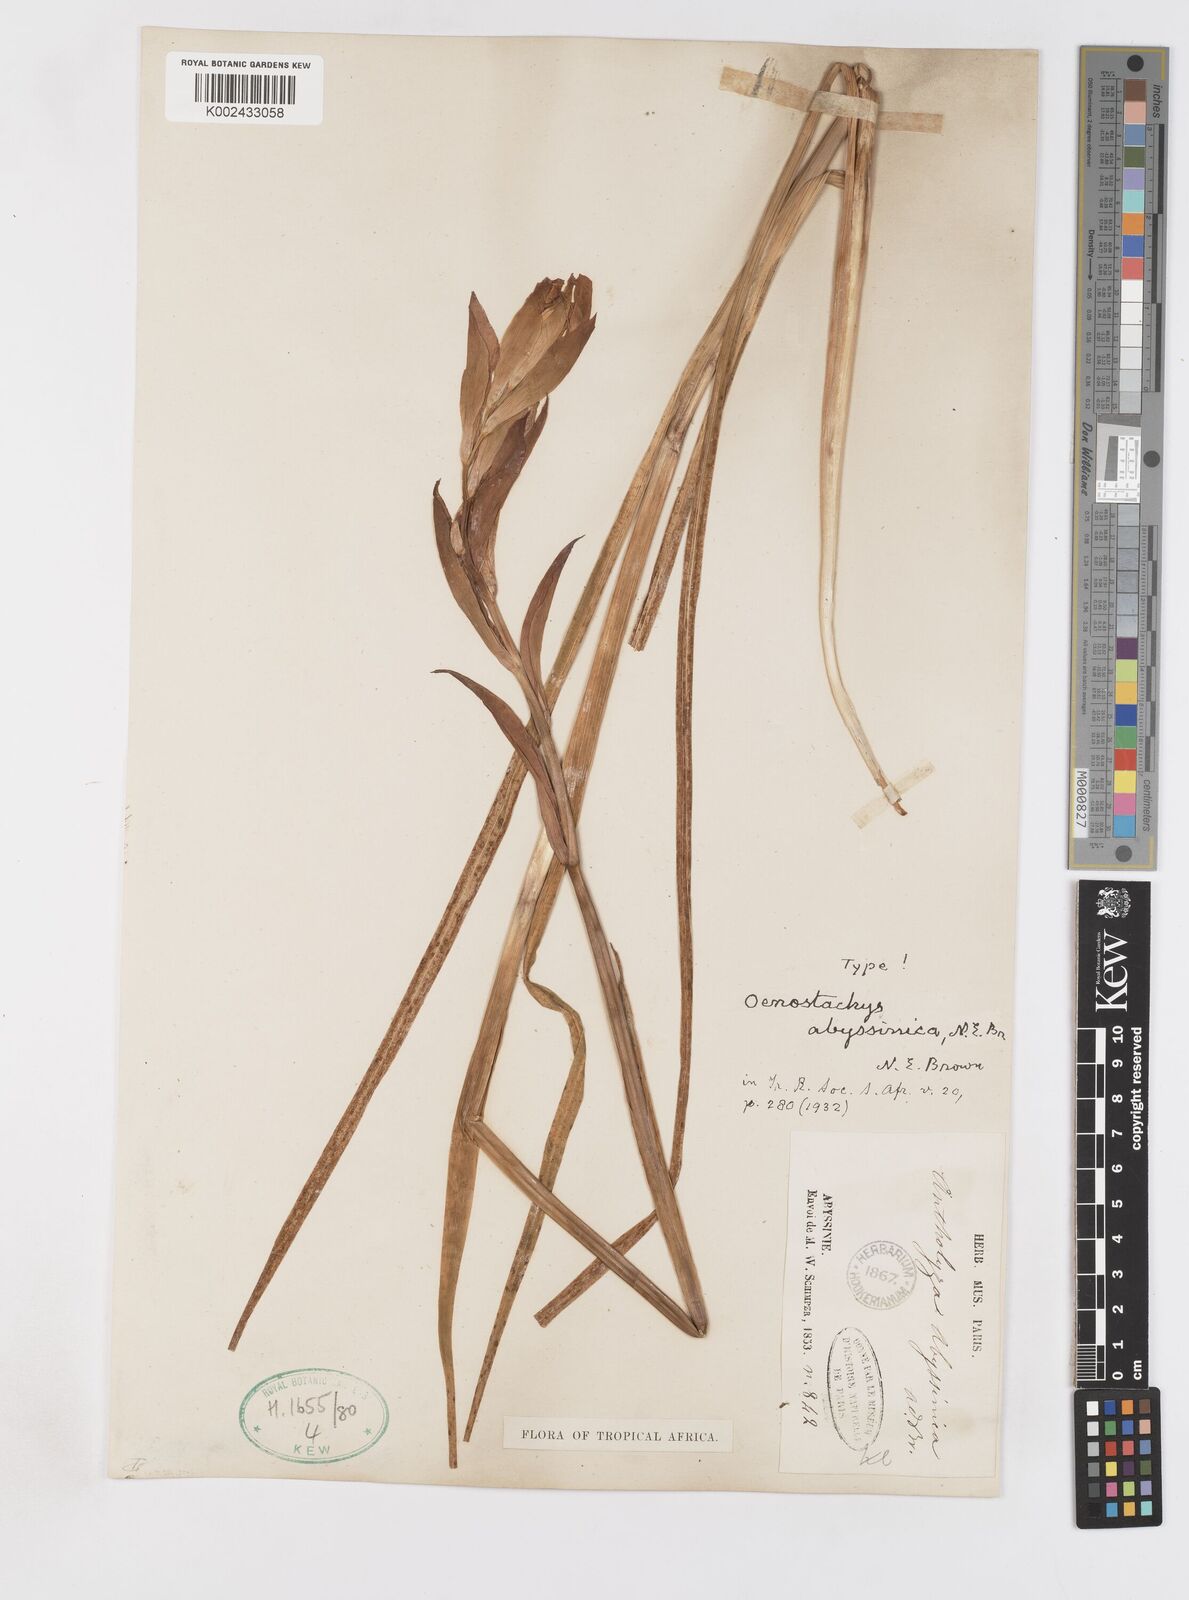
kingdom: Plantae
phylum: Tracheophyta
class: Liliopsida
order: Asparagales
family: Iridaceae
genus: Gladiolus
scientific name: Gladiolus abyssinicus
